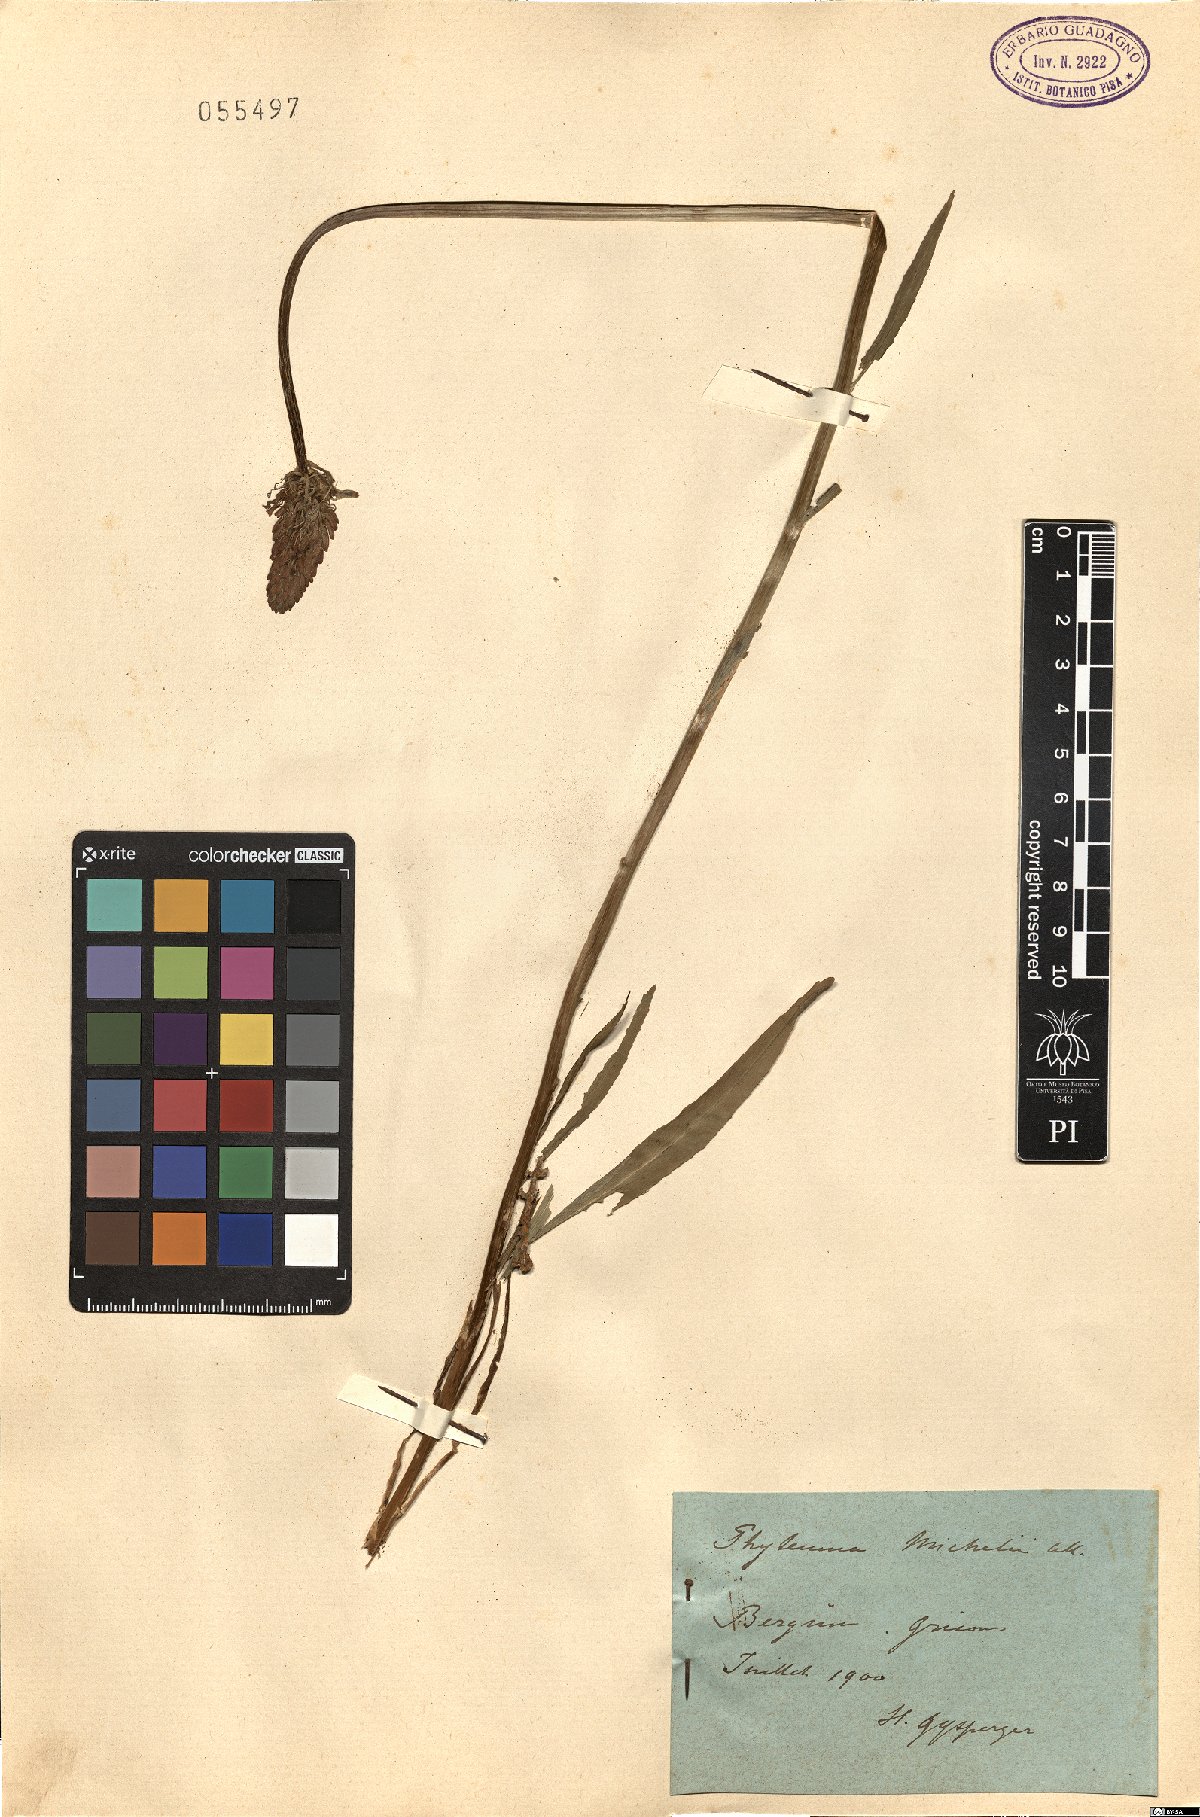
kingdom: Plantae
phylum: Tracheophyta
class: Magnoliopsida
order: Asterales
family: Campanulaceae
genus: Phyteuma
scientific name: Phyteuma michelii
